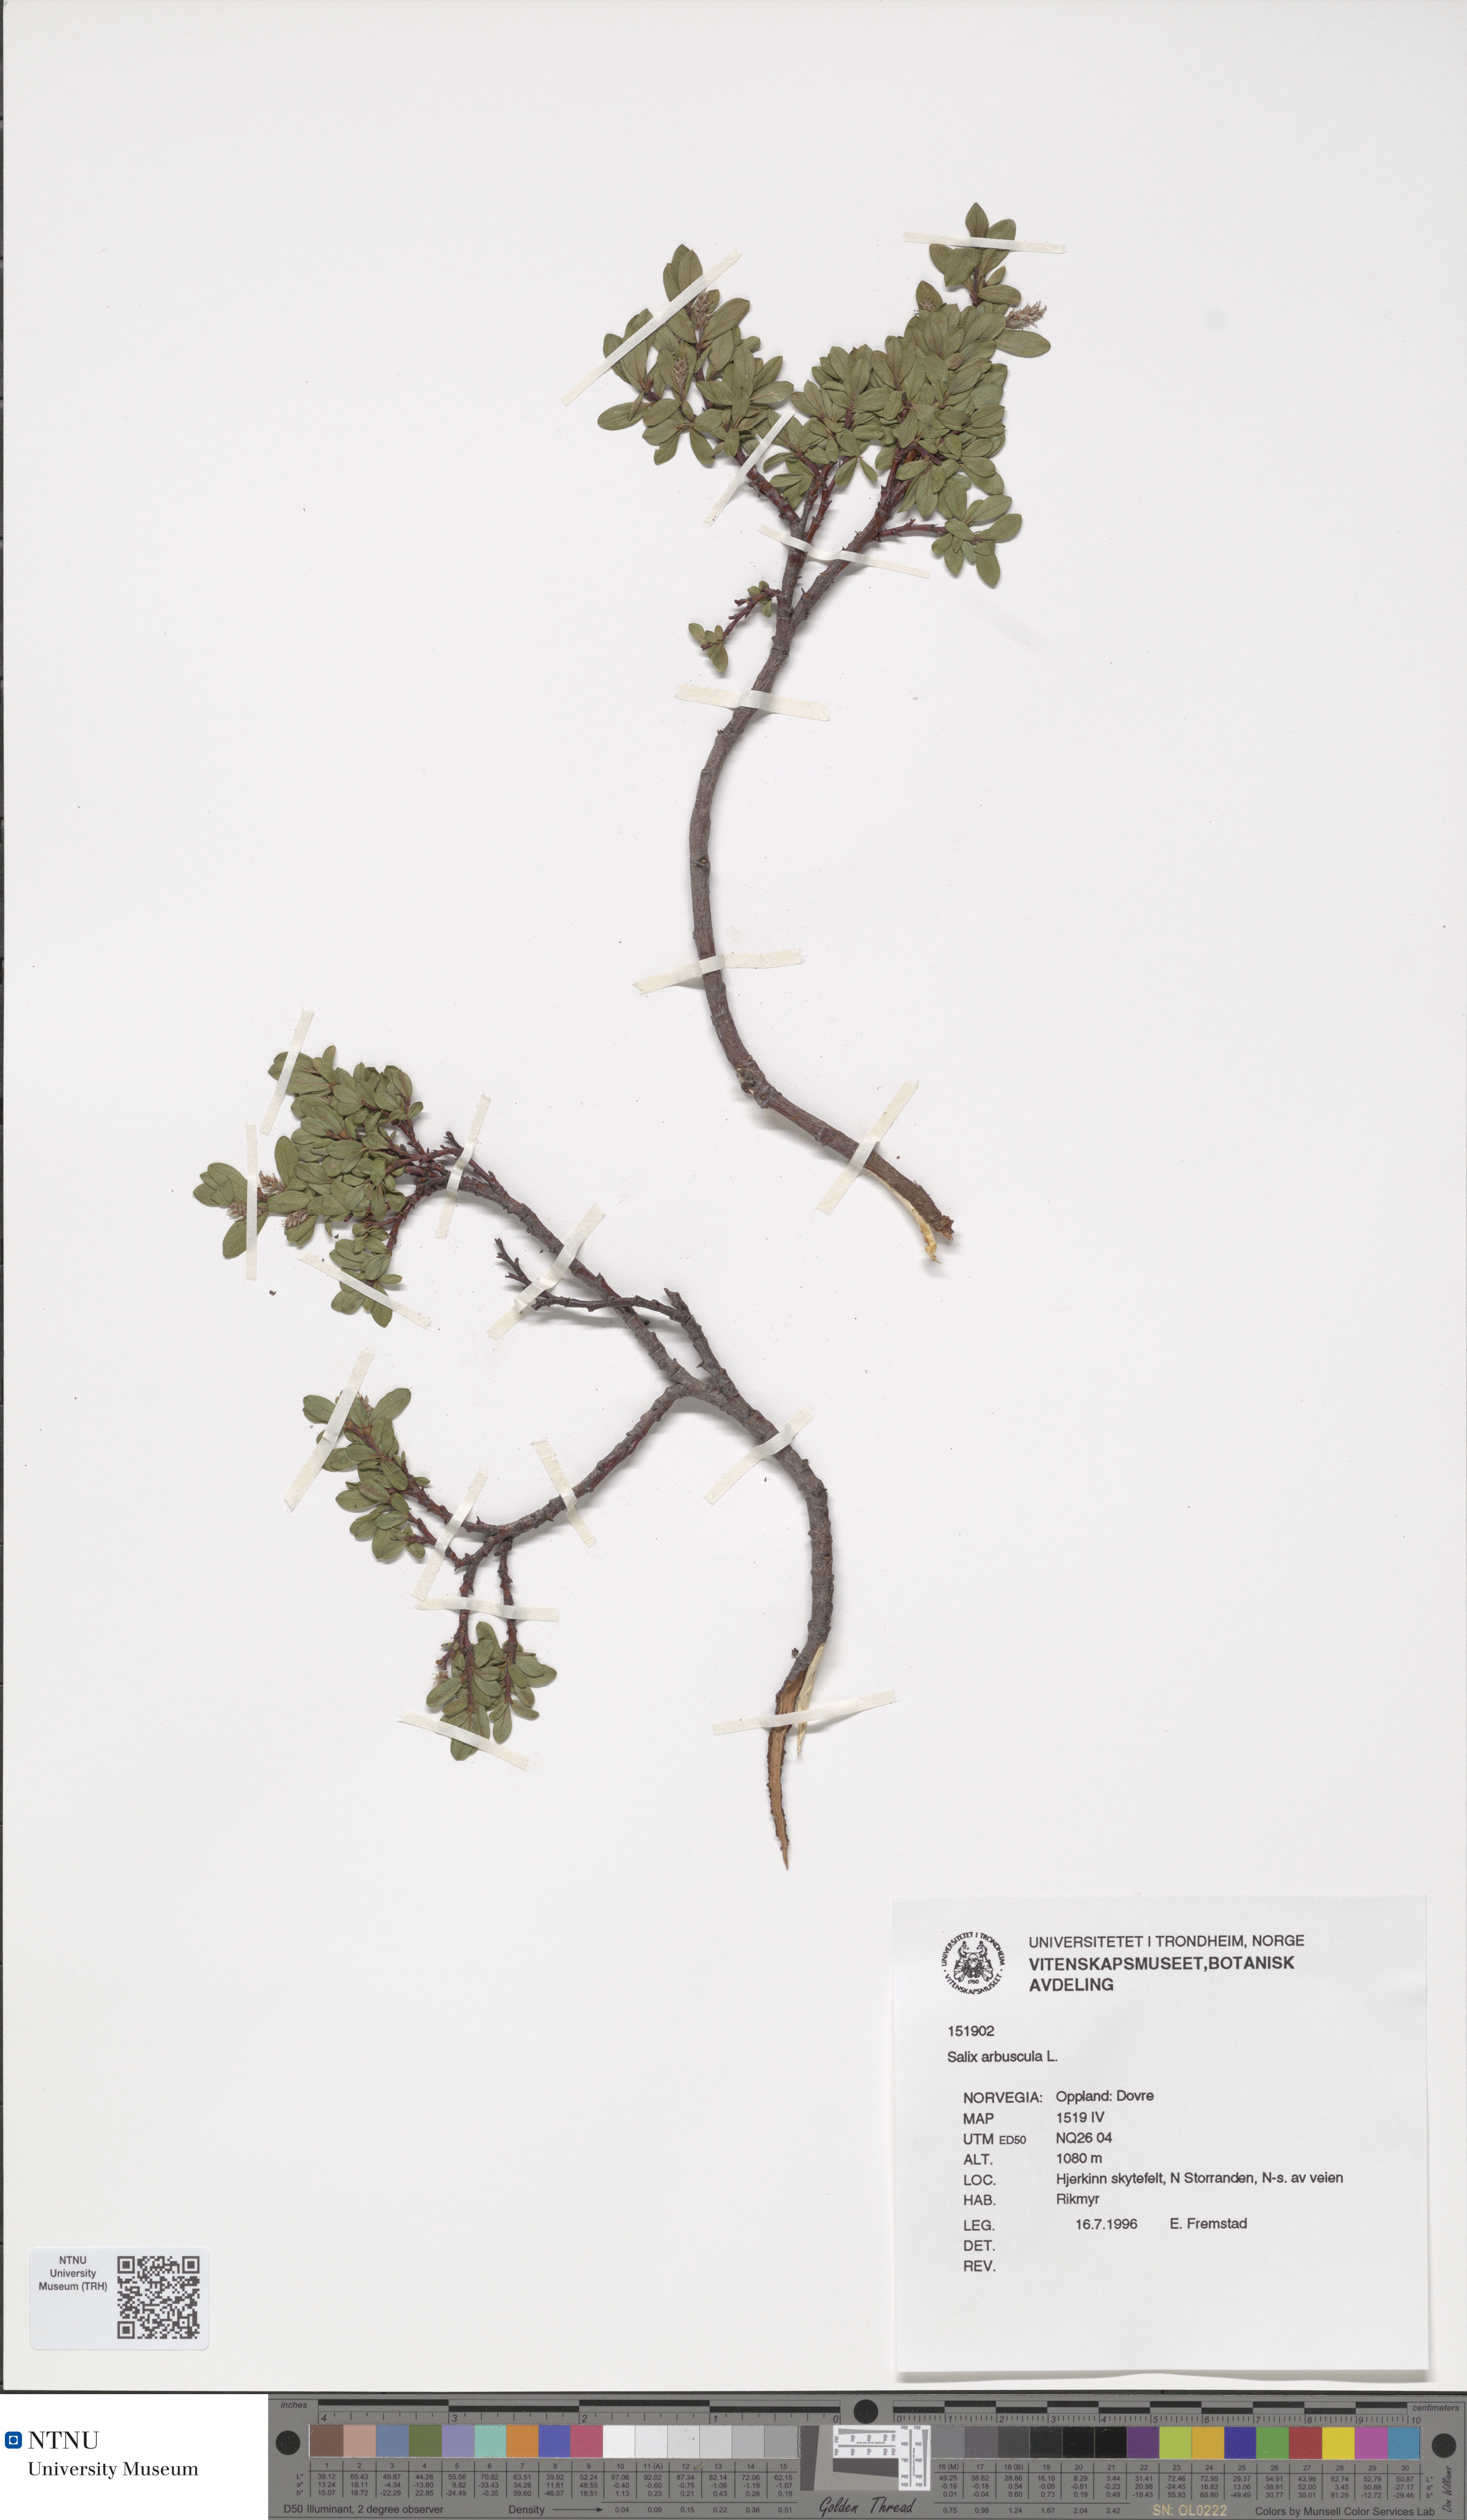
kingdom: Plantae
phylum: Tracheophyta
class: Magnoliopsida
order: Malpighiales
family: Salicaceae
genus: Salix
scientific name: Salix arbuscula
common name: Mountain willow
